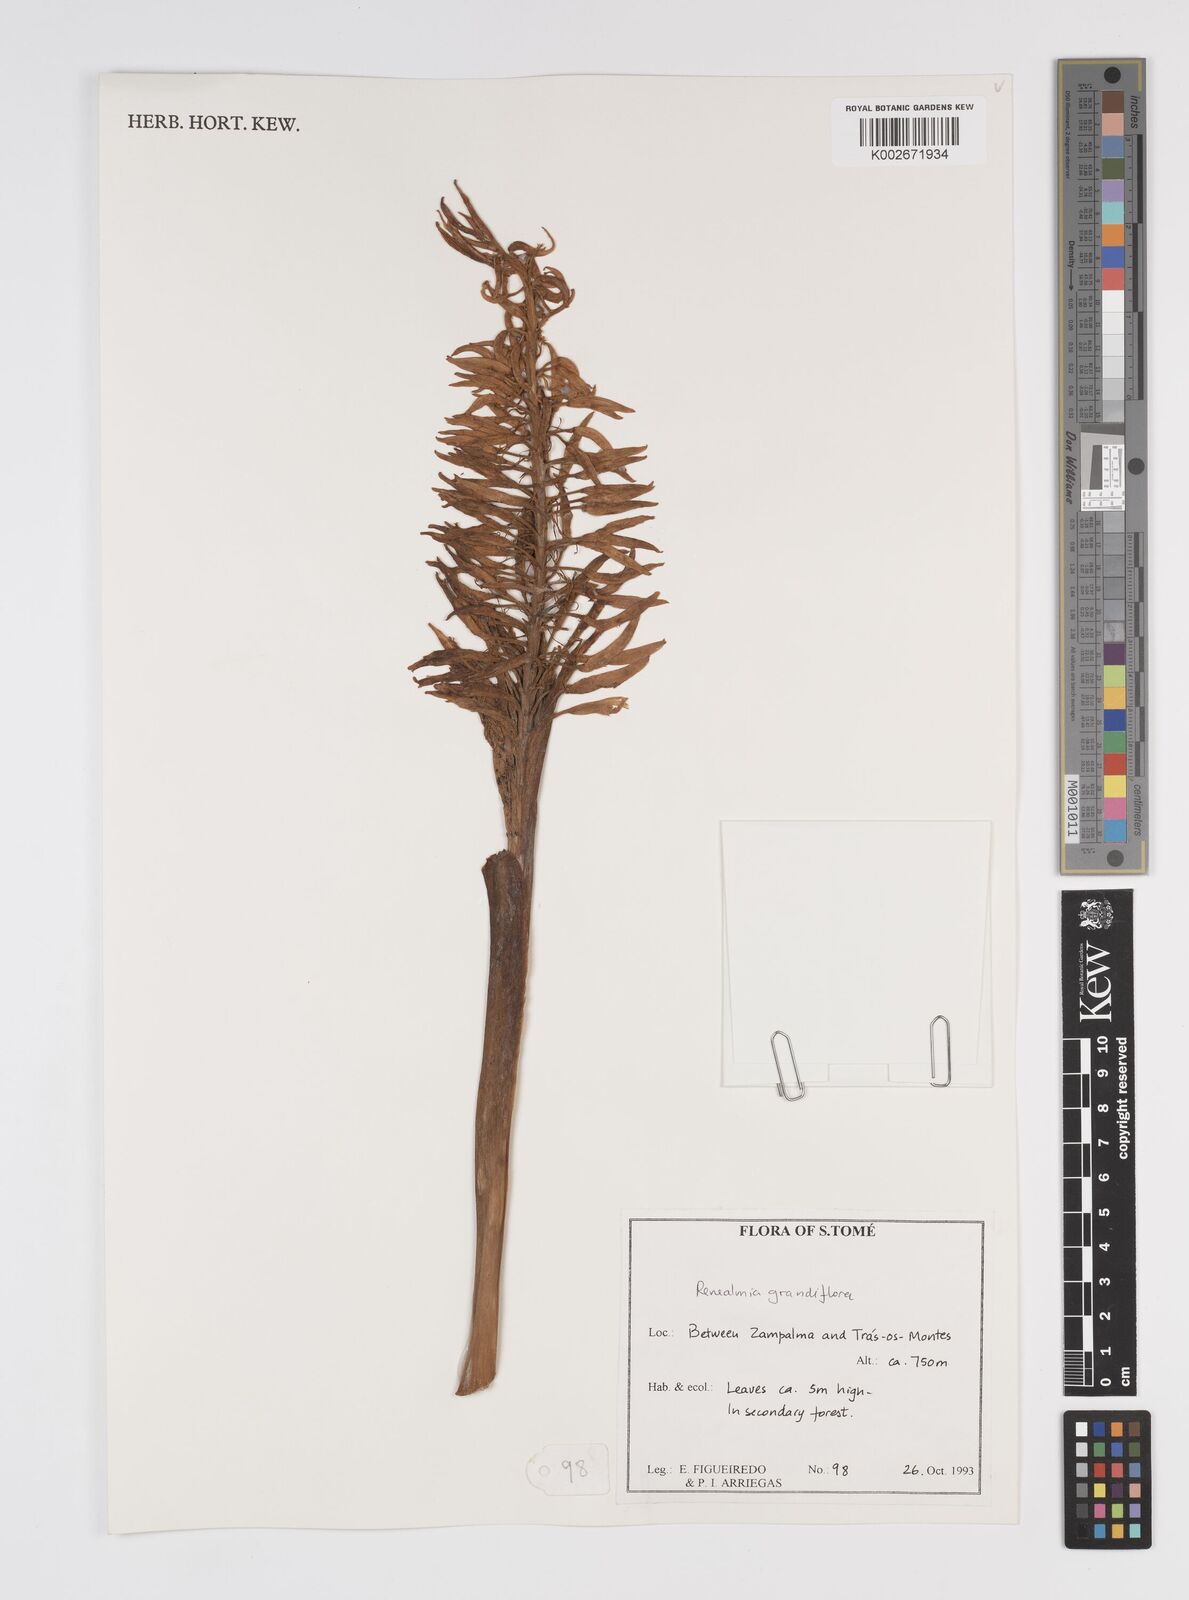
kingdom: Plantae
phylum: Tracheophyta
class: Liliopsida
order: Zingiberales
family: Zingiberaceae
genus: Renealmia
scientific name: Renealmia sancti-thomae
